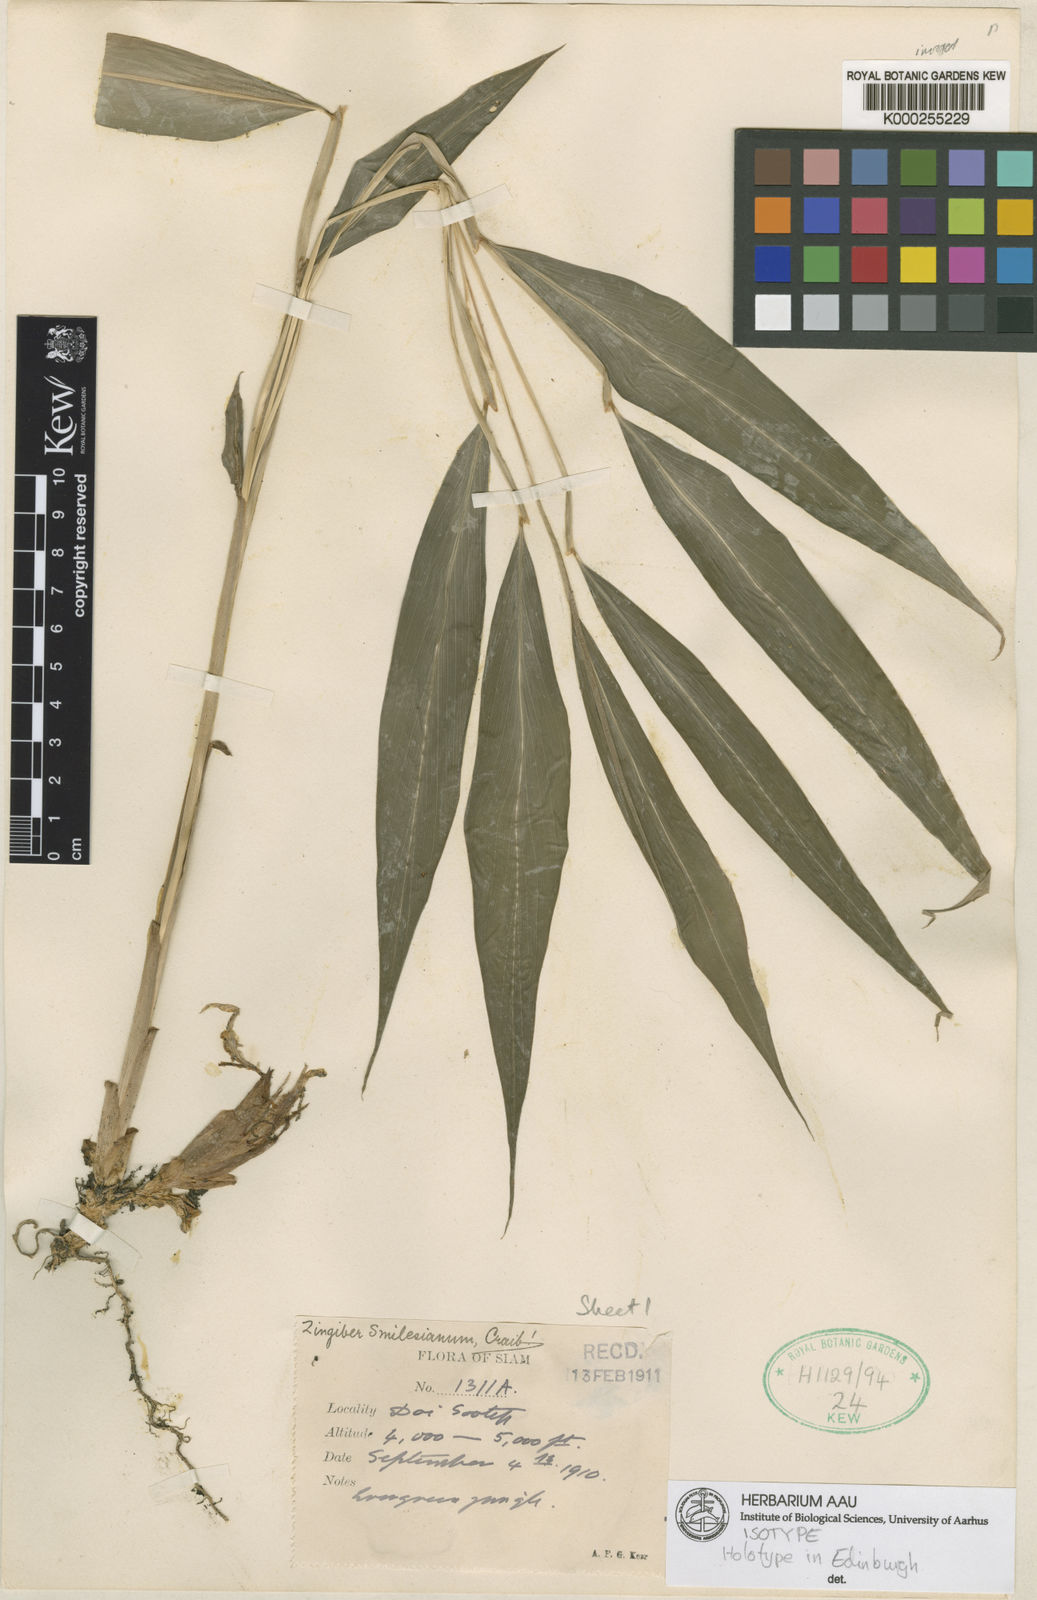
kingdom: Plantae
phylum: Tracheophyta
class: Liliopsida
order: Zingiberales
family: Zingiberaceae
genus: Zingiber
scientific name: Zingiber smilesianum
